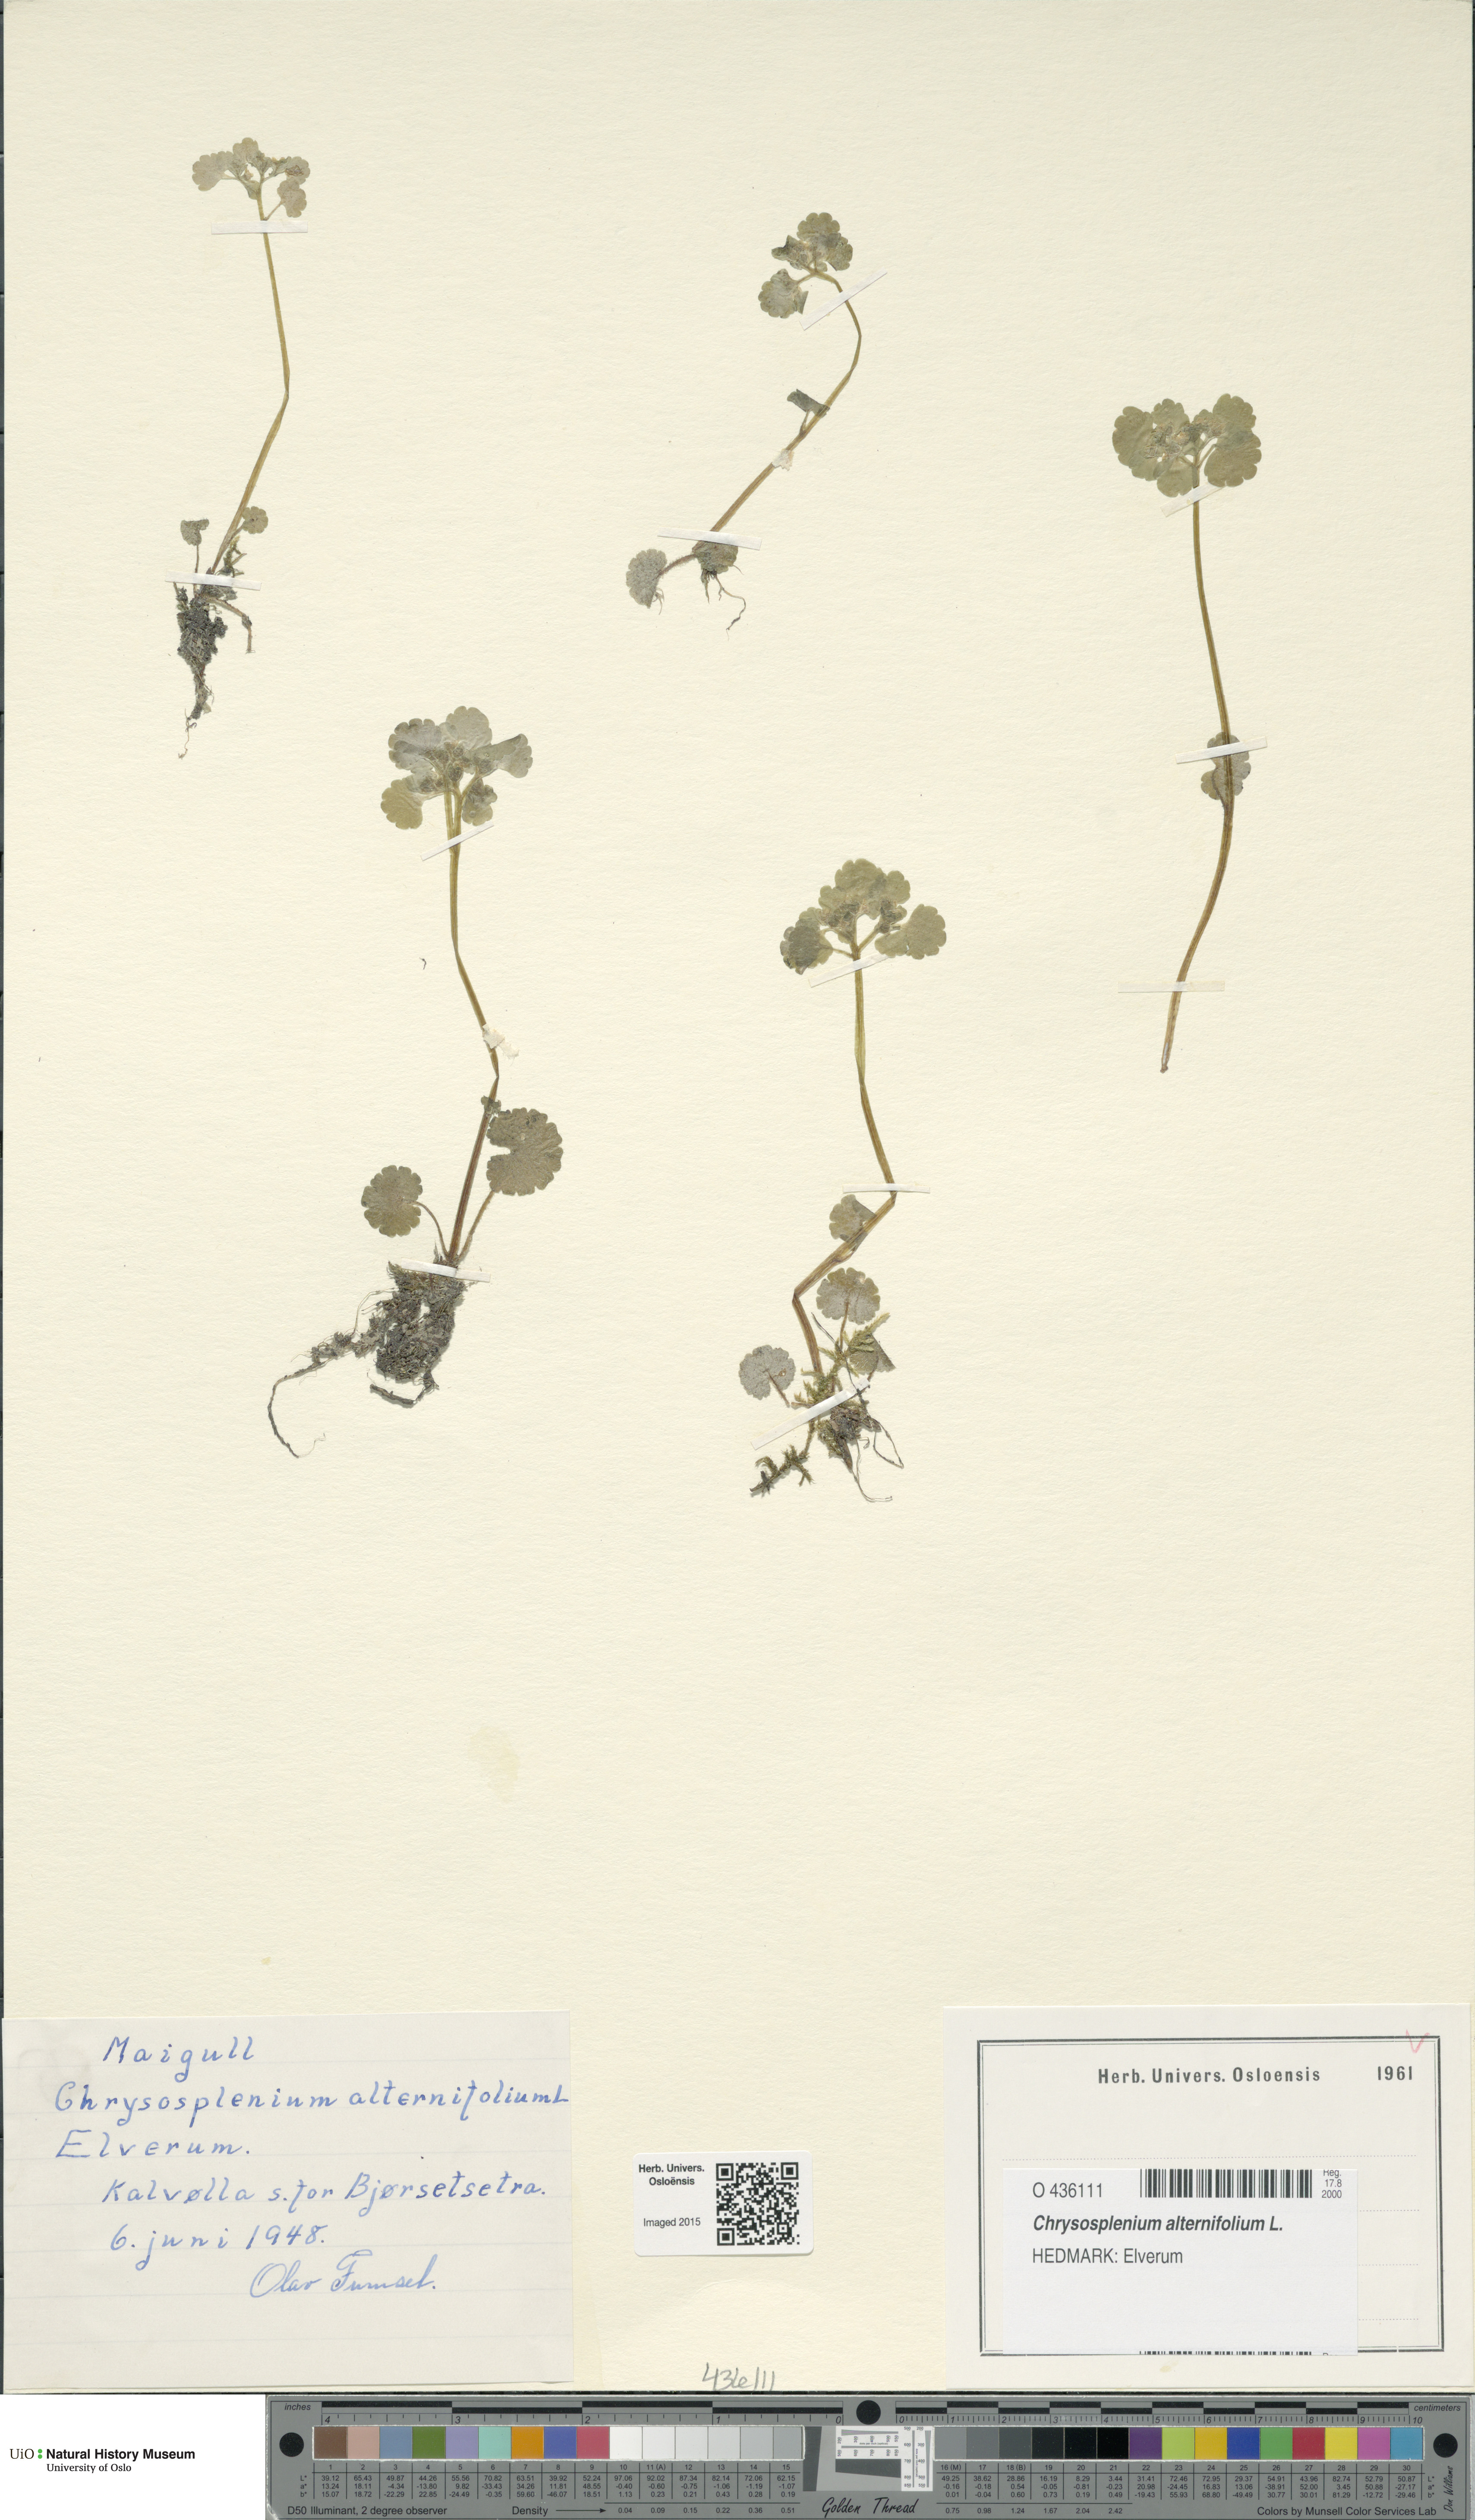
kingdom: Plantae
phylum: Tracheophyta
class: Magnoliopsida
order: Saxifragales
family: Saxifragaceae
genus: Chrysosplenium
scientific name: Chrysosplenium alternifolium
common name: Alternate-leaved golden-saxifrage
